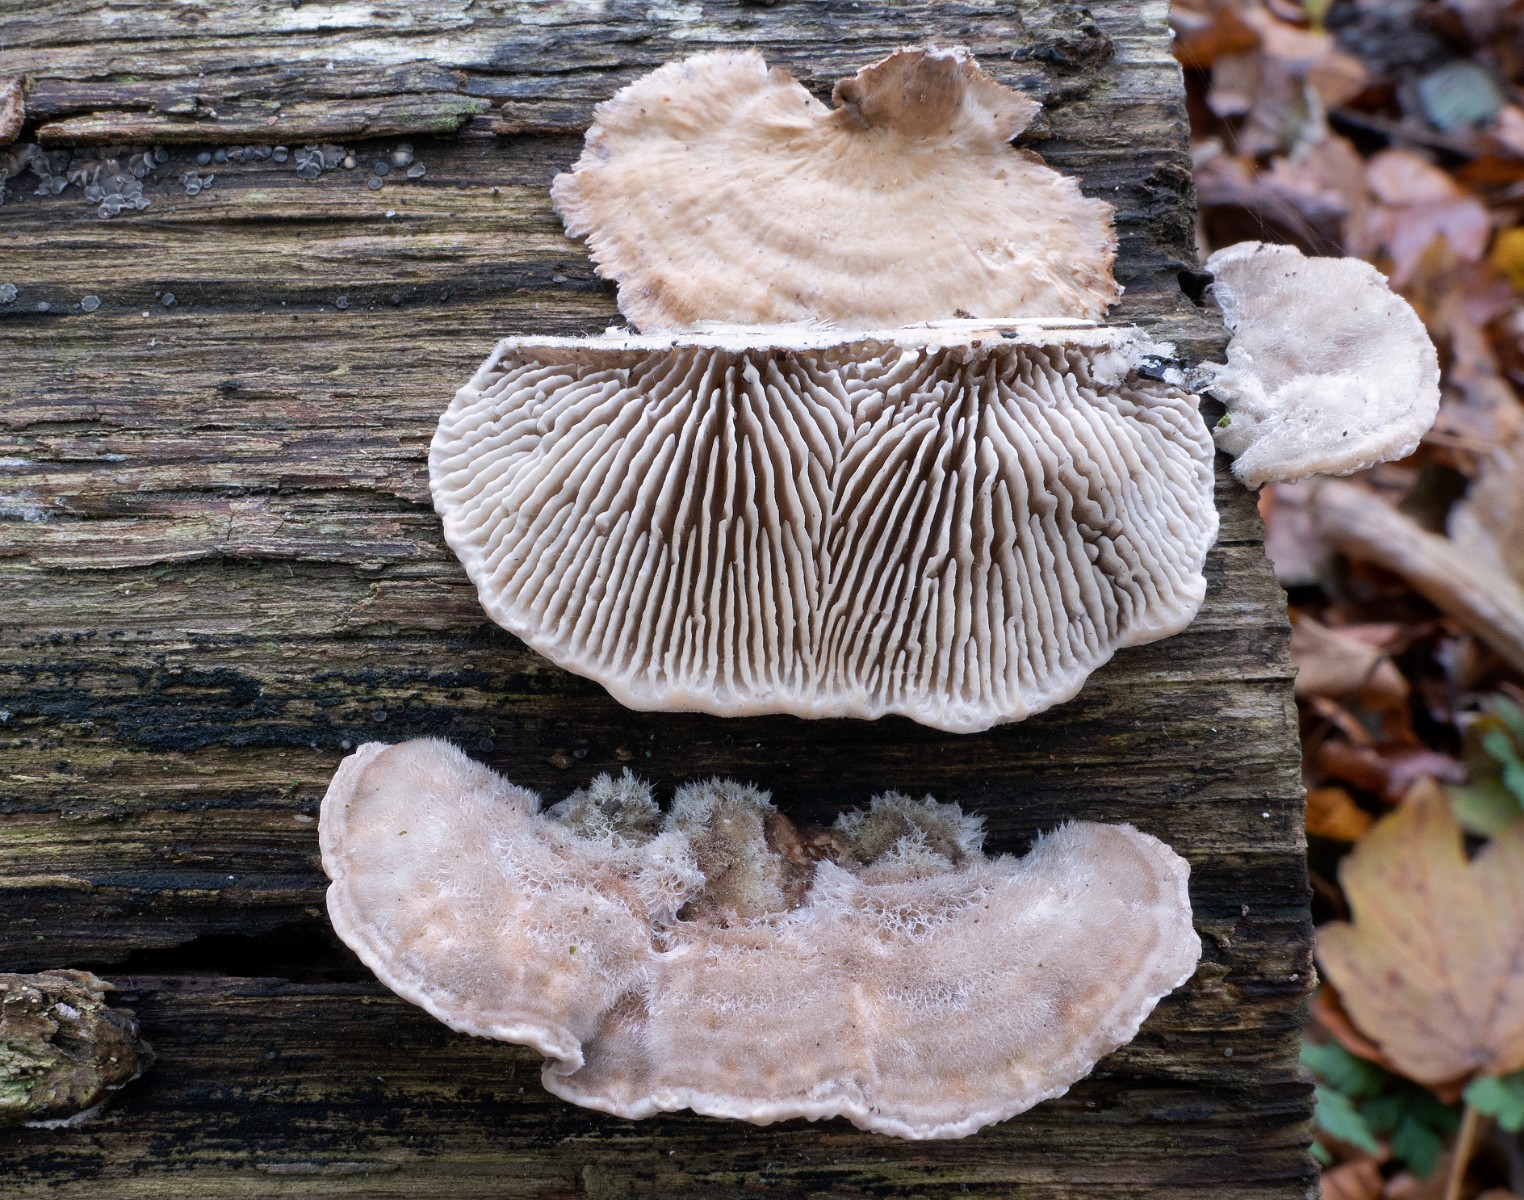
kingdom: Fungi
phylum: Basidiomycota
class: Agaricomycetes
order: Polyporales
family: Polyporaceae
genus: Lenzites
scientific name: Lenzites betulinus
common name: birke-læderporesvamp
